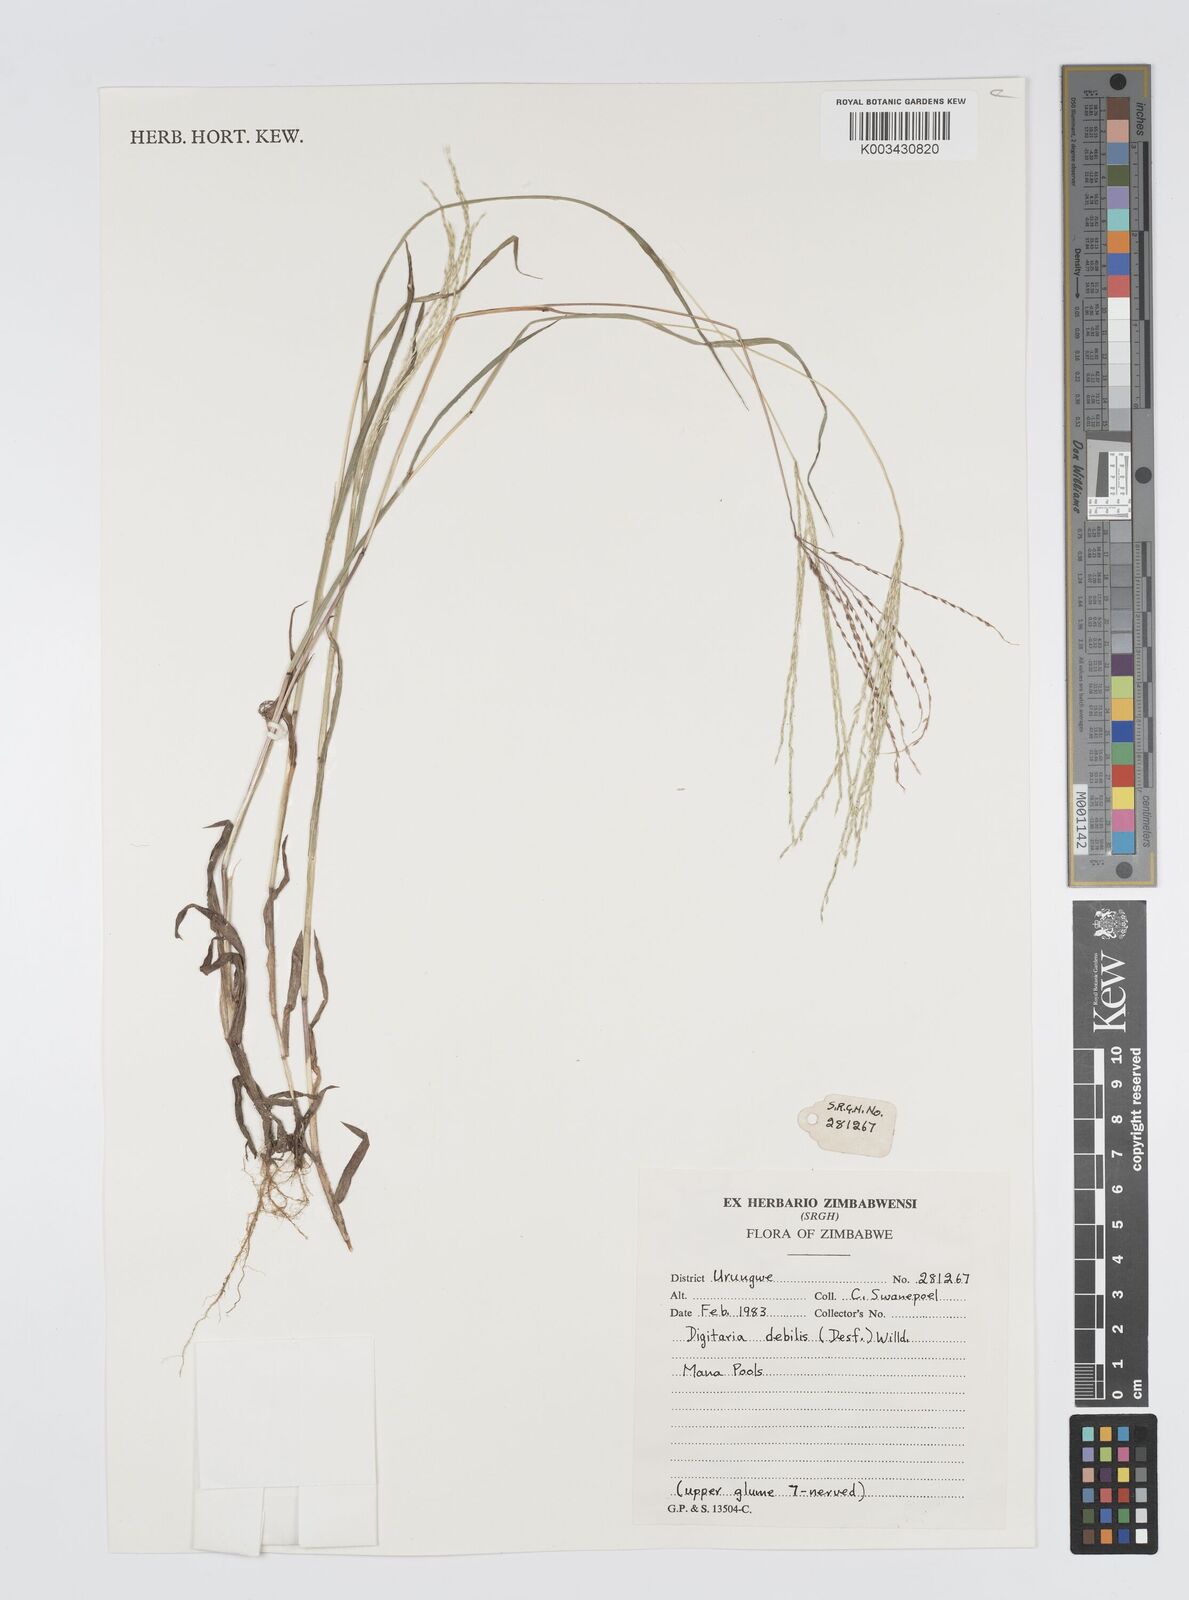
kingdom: Plantae
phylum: Tracheophyta
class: Liliopsida
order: Poales
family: Poaceae
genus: Digitaria
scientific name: Digitaria debilis
